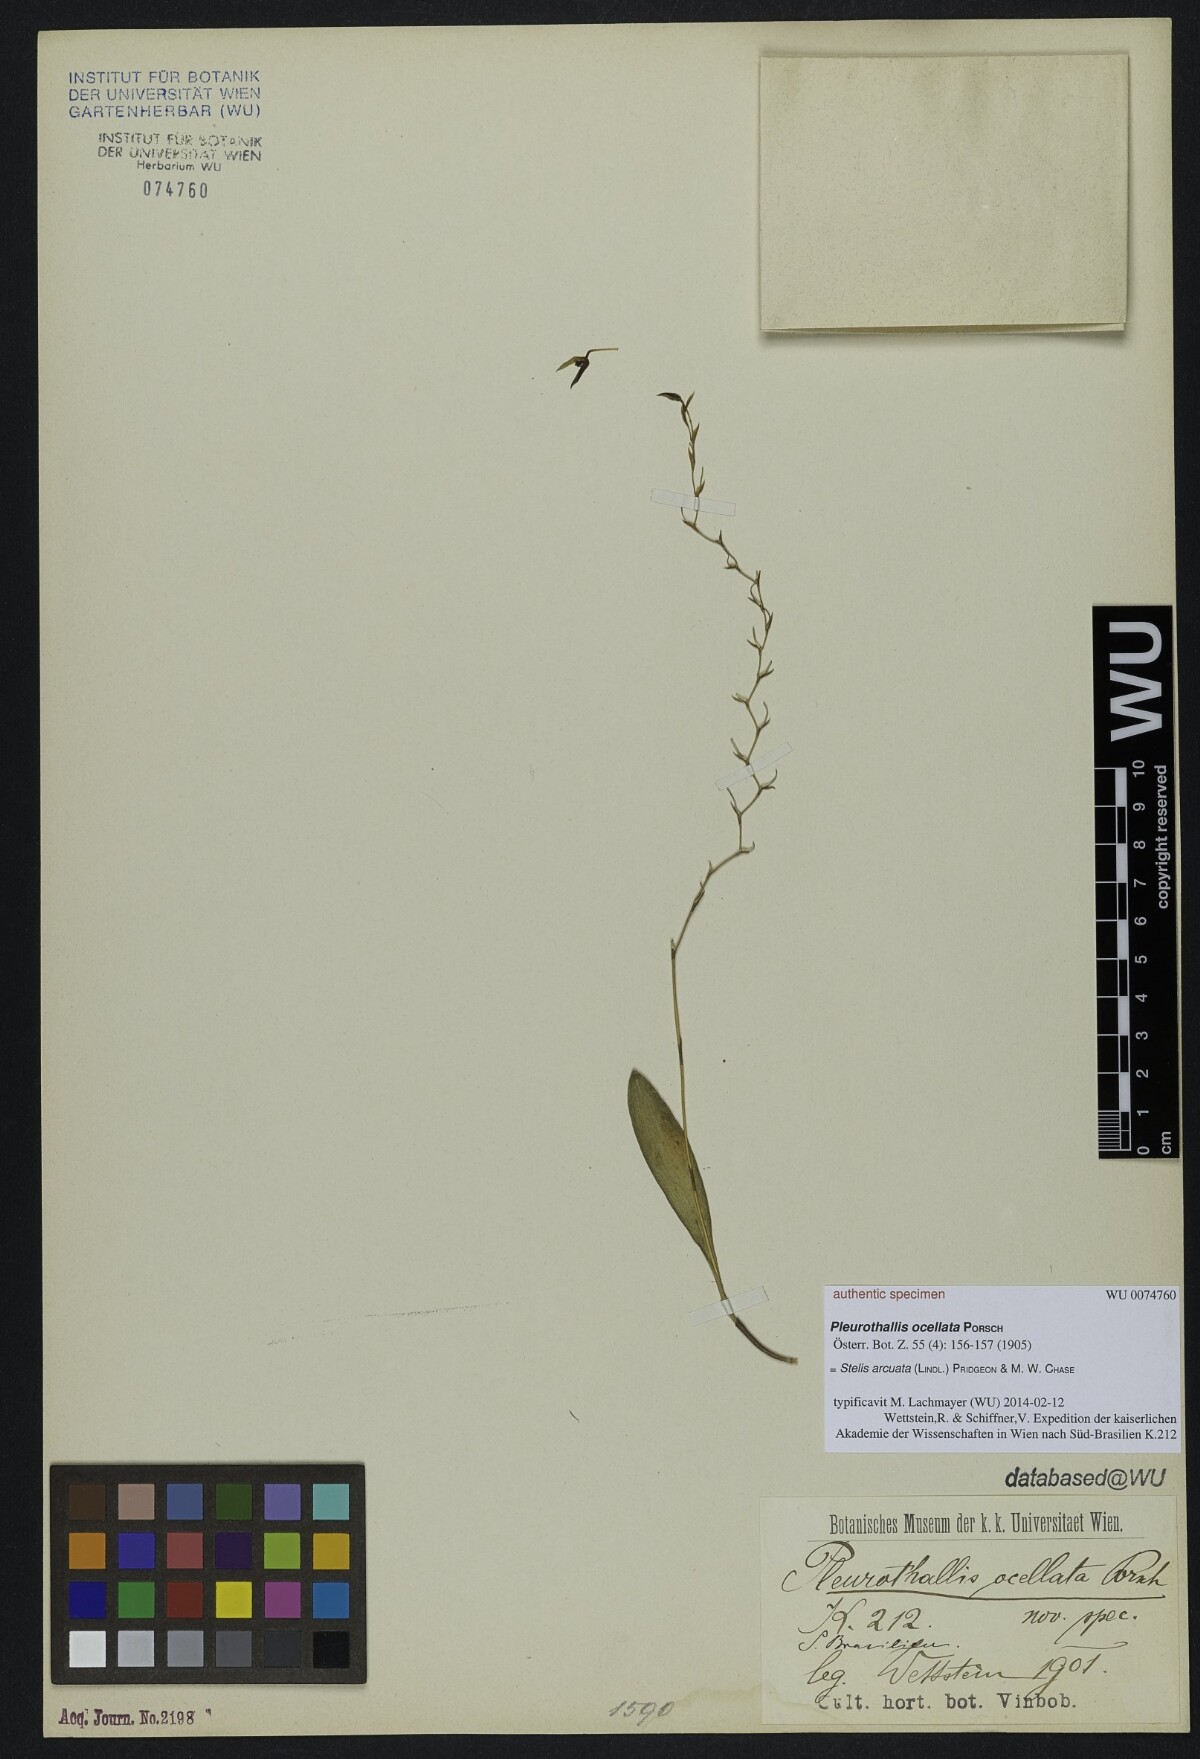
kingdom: Plantae
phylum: Tracheophyta
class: Liliopsida
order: Asparagales
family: Orchidaceae
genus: Pabstiella
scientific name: Pabstiella arcuata
